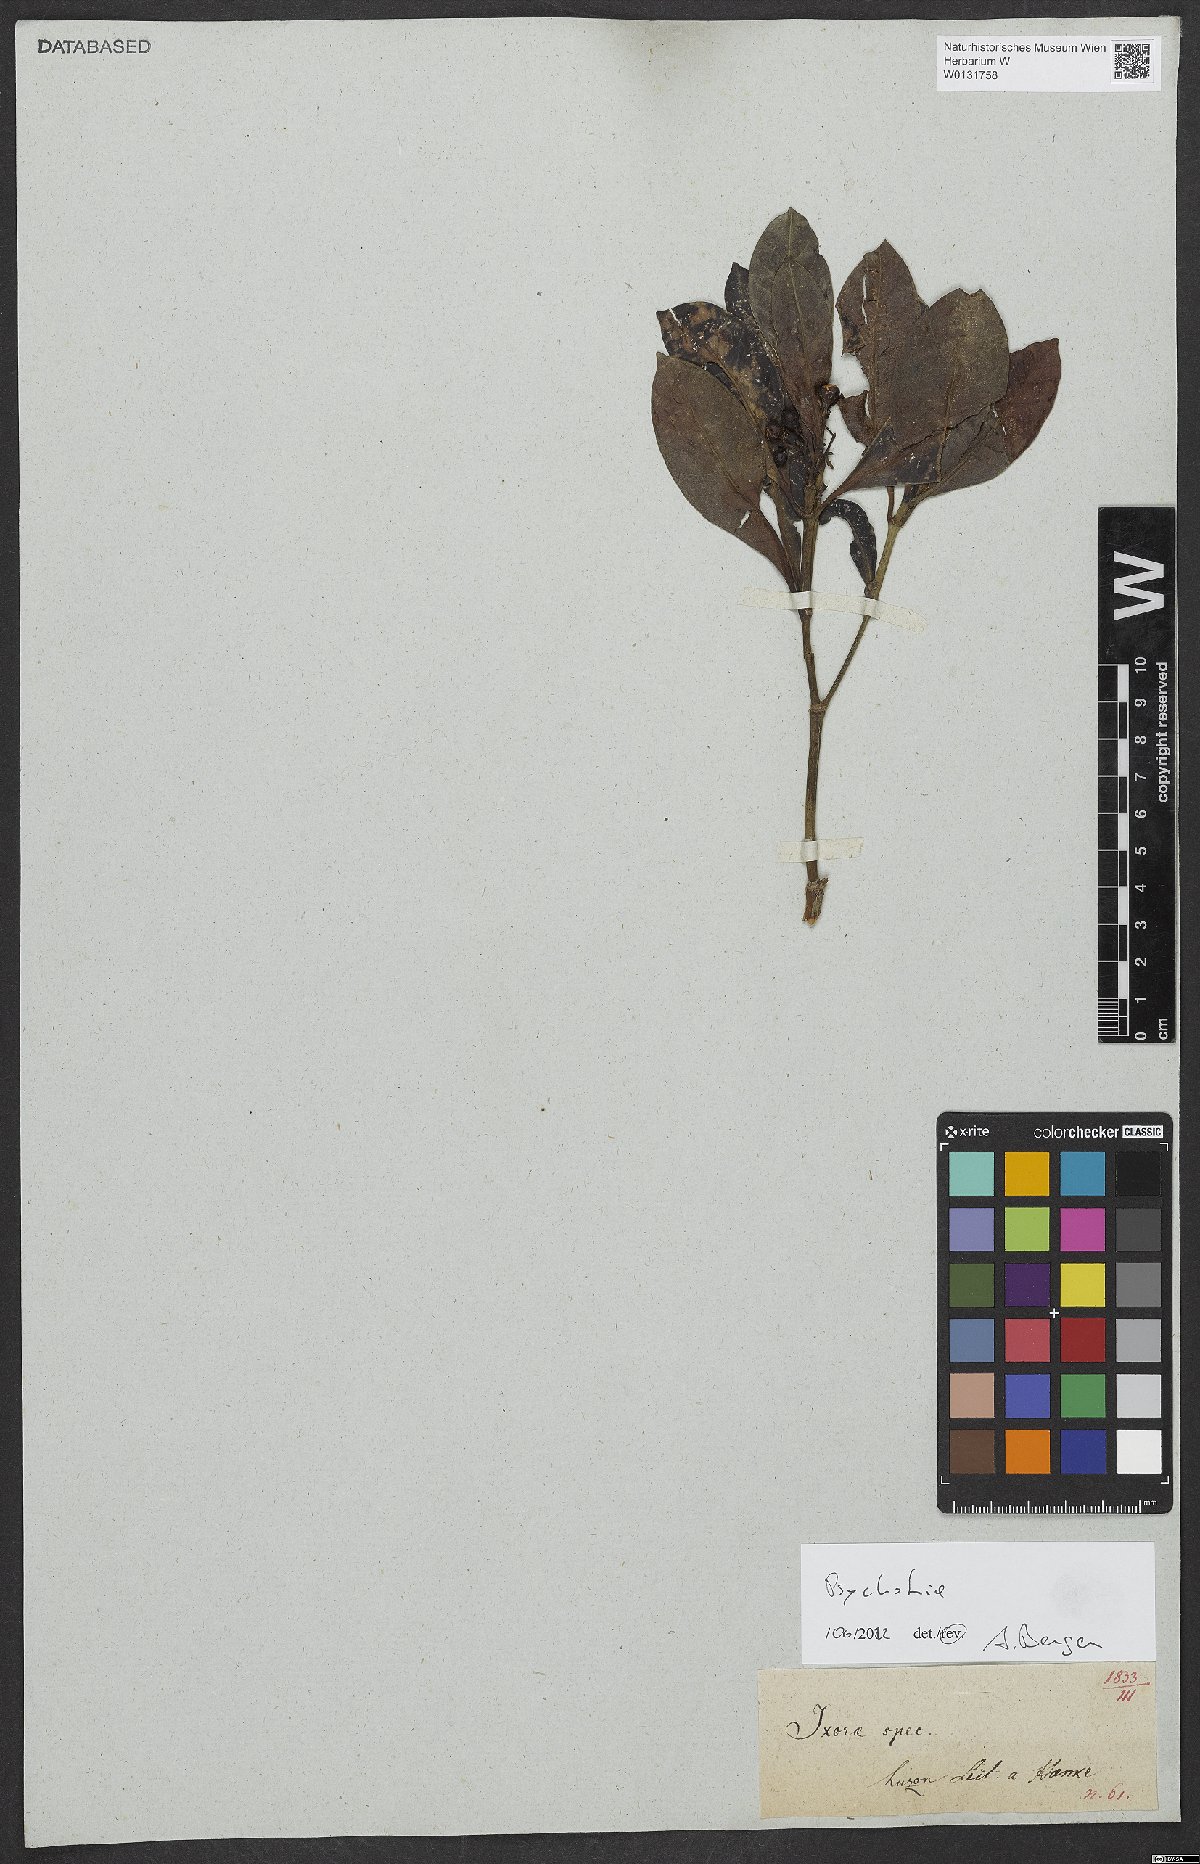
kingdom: Plantae
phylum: Tracheophyta
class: Magnoliopsida
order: Gentianales
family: Rubiaceae
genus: Psychotria
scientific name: Psychotria
